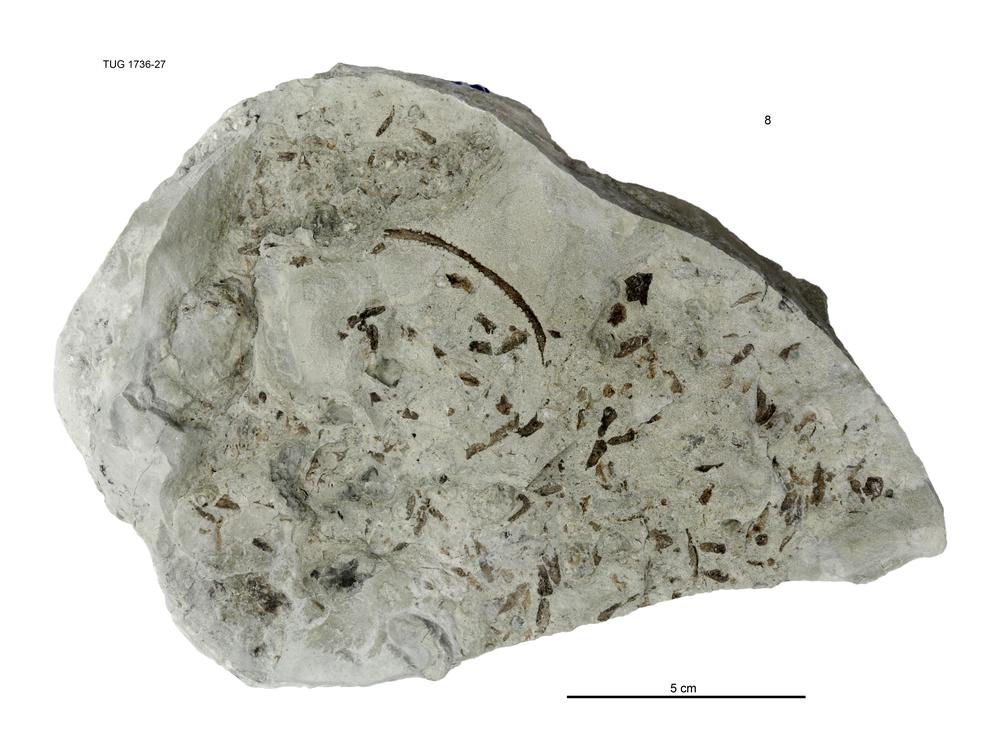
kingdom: Animalia
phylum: Echinodermata
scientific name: Echinodermata
